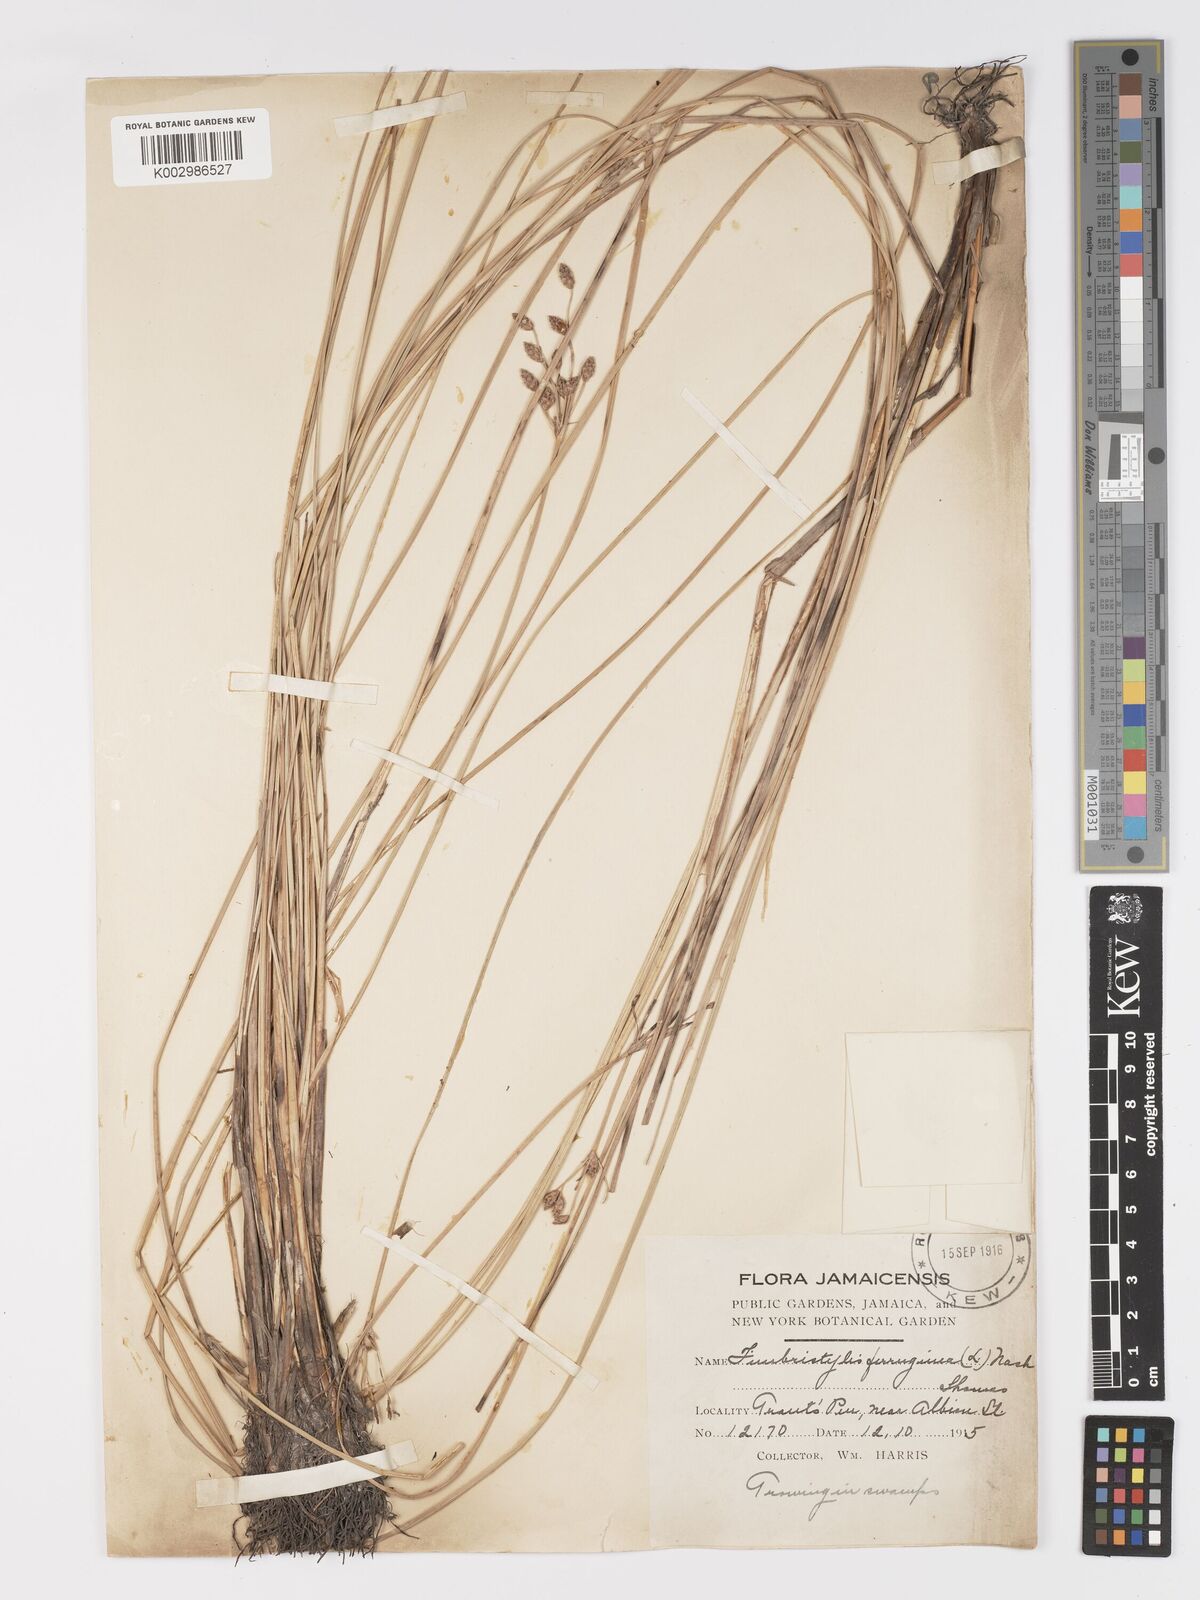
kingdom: Plantae
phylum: Tracheophyta
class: Liliopsida
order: Poales
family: Cyperaceae
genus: Fimbristylis
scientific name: Fimbristylis ferruginea
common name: West indian fimbry
